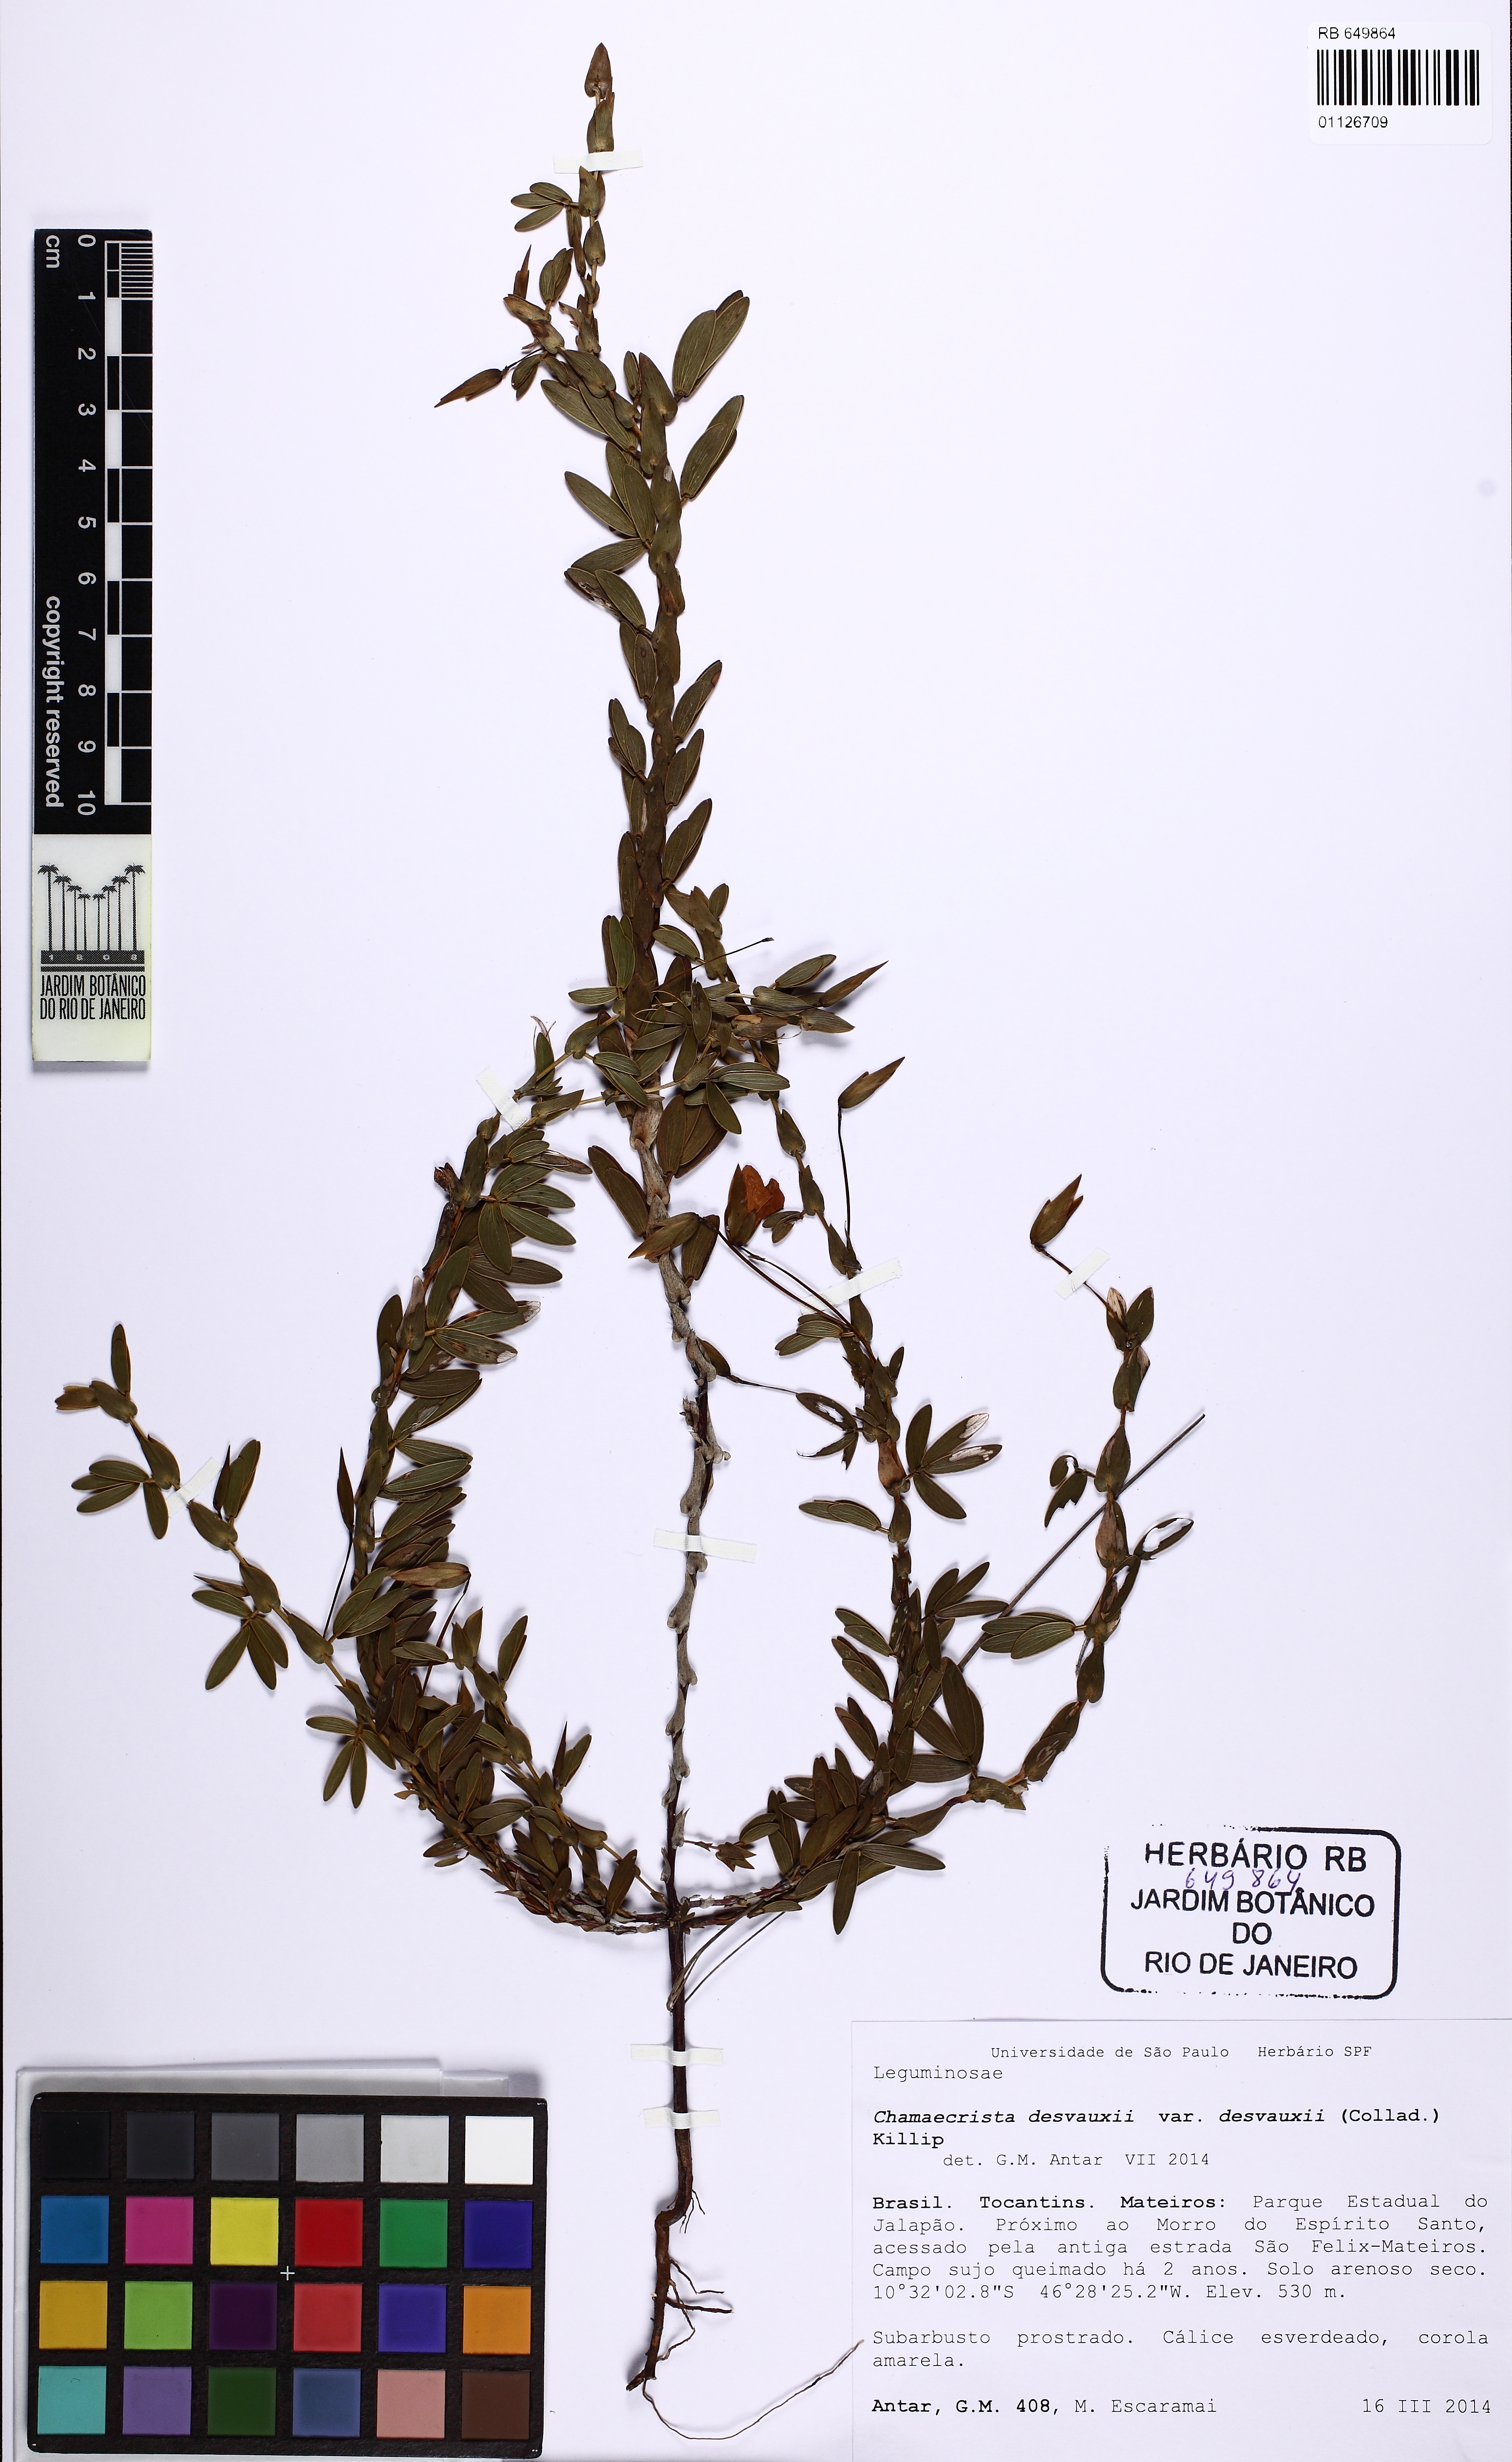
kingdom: Plantae
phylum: Tracheophyta
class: Magnoliopsida
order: Fabales
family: Fabaceae
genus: Chamaecrista
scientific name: Chamaecrista desvauxii
